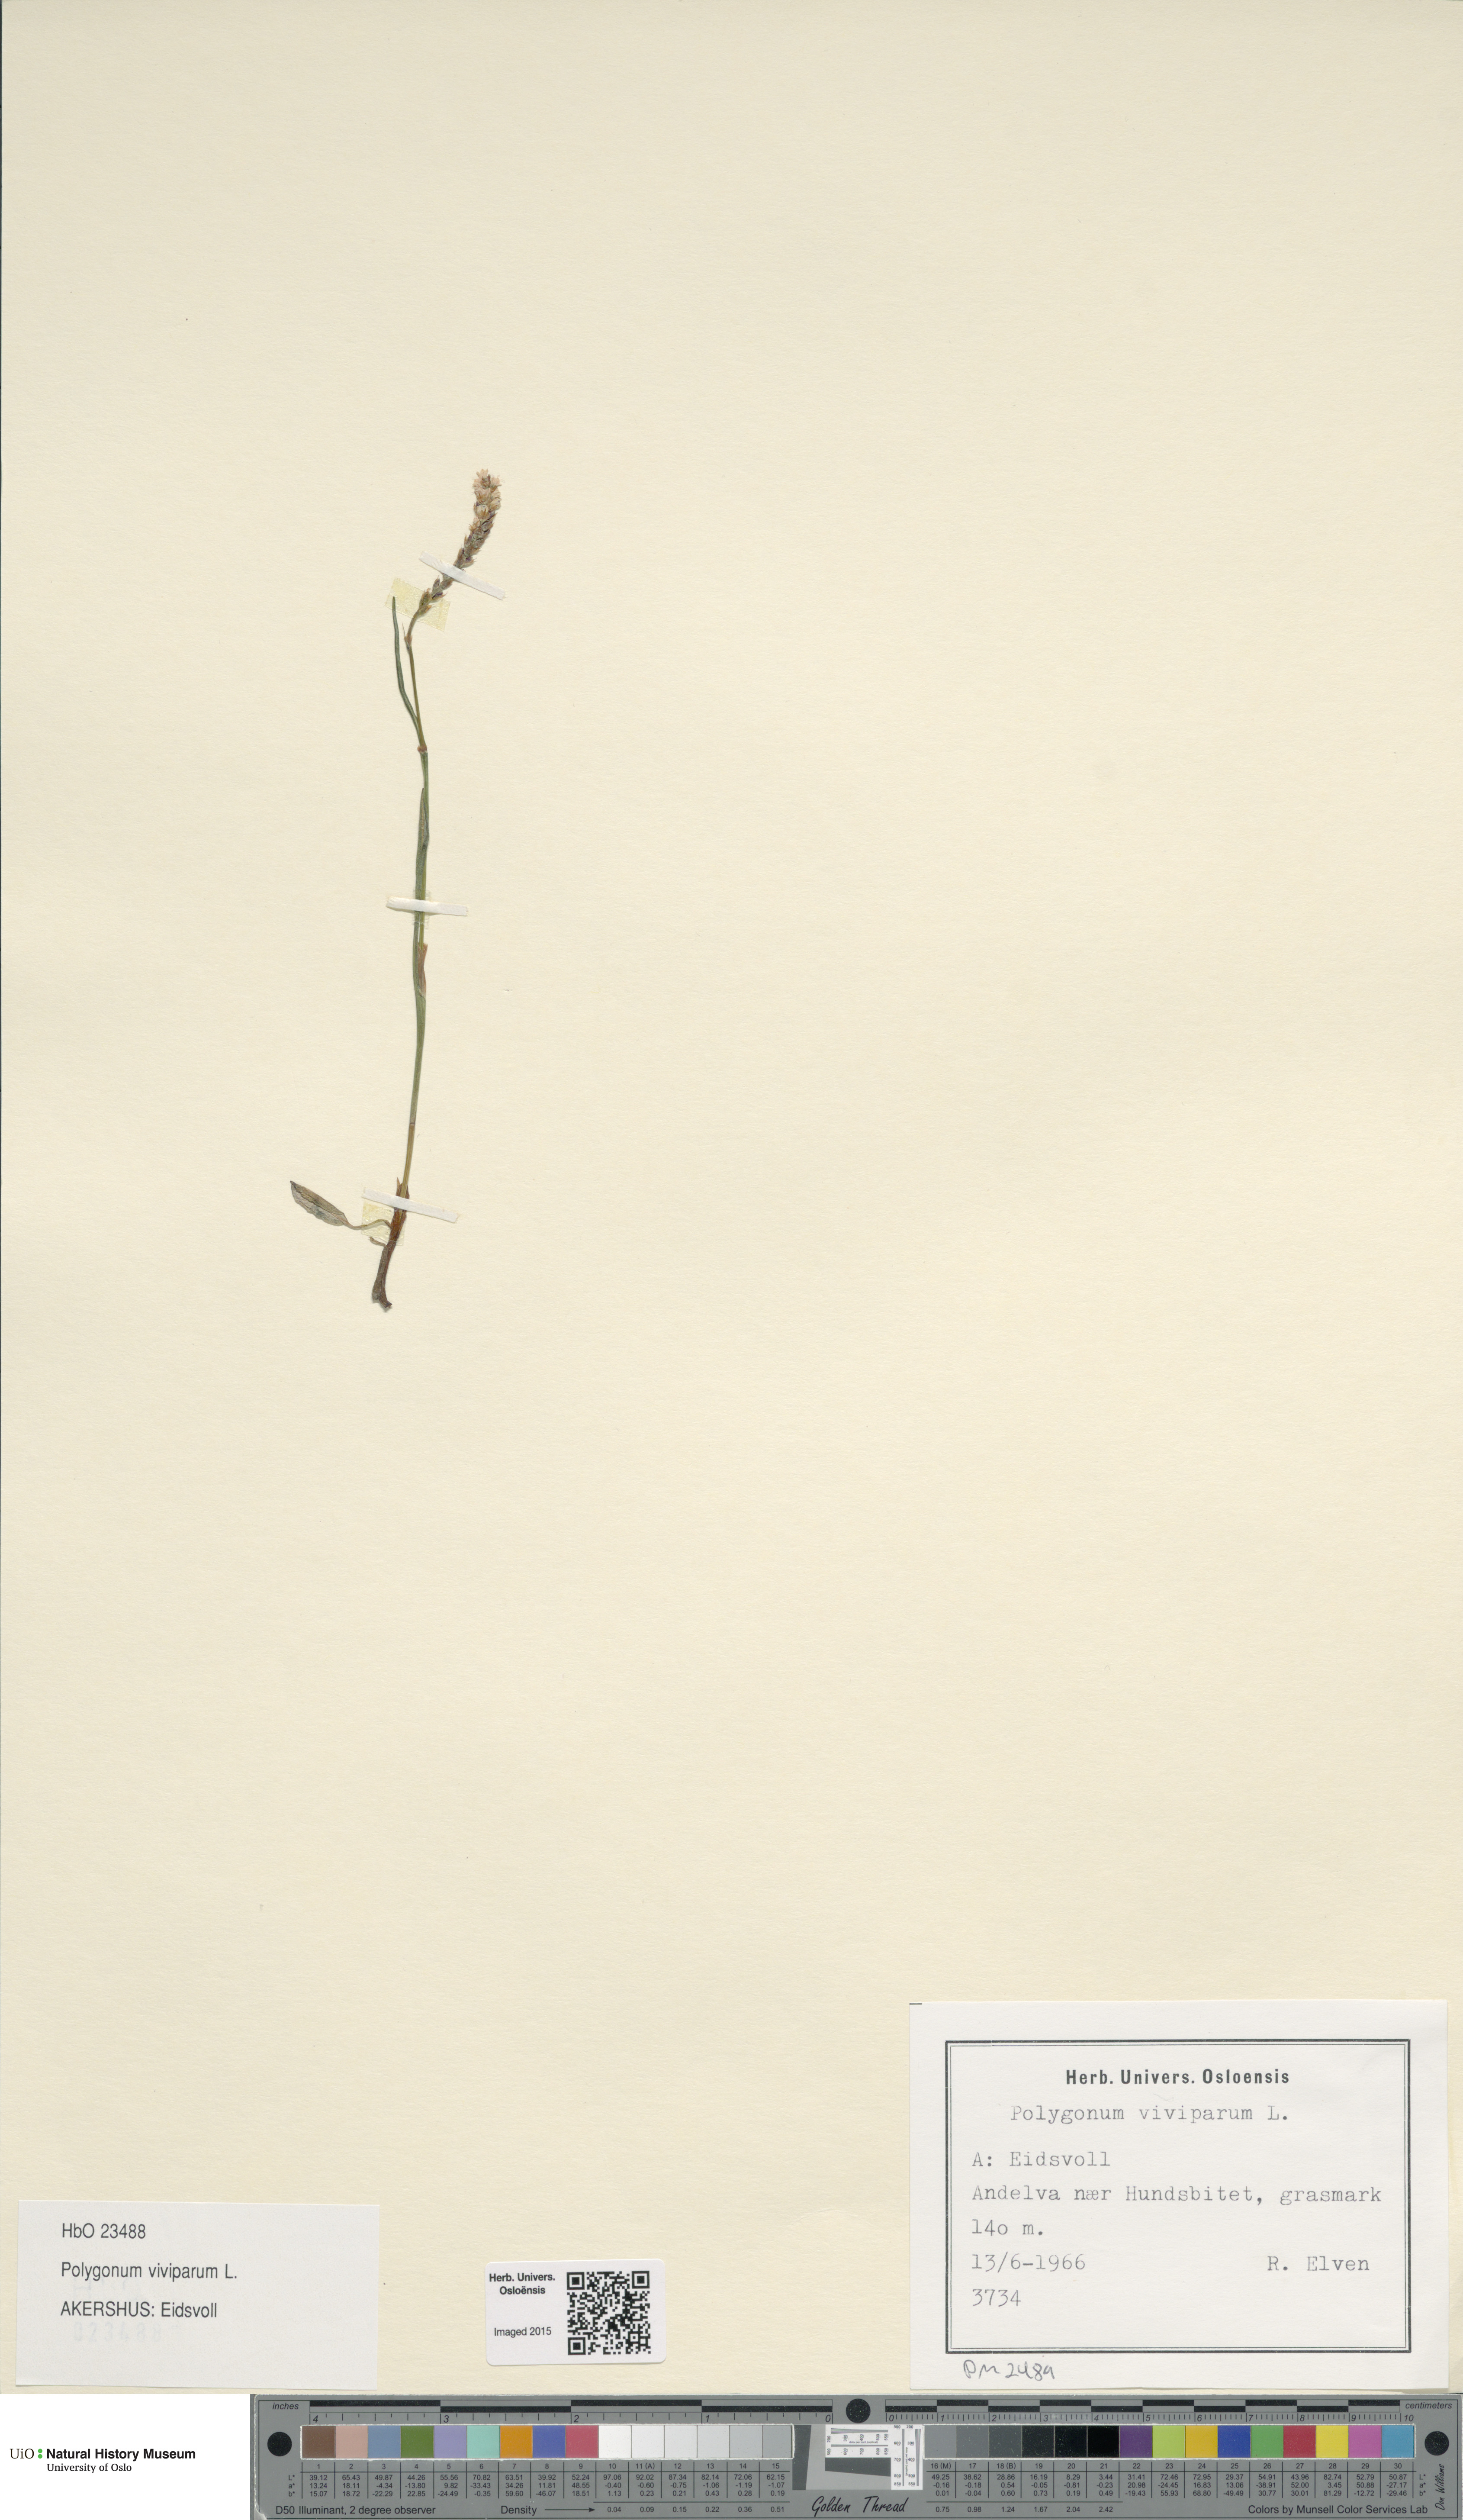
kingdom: Plantae
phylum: Tracheophyta
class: Magnoliopsida
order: Caryophyllales
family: Polygonaceae
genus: Bistorta
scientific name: Bistorta vivipara
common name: Alpine bistort
